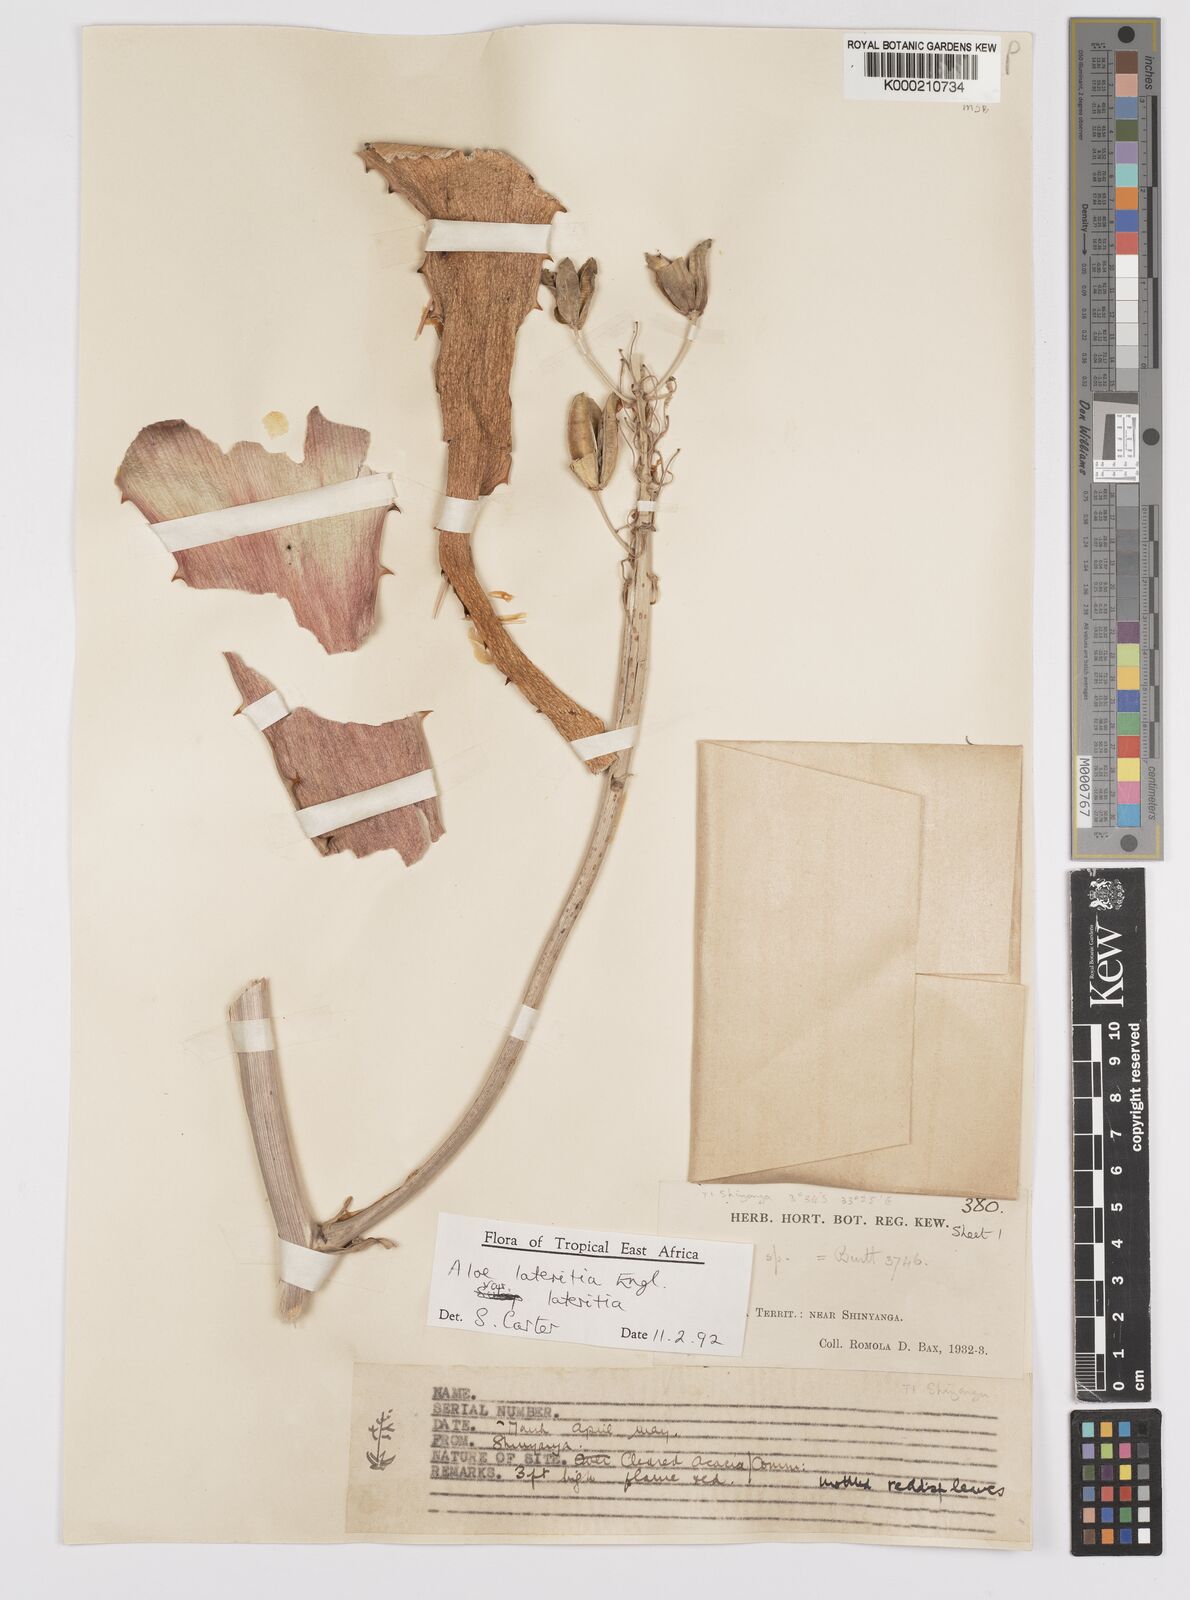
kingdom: Plantae
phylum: Tracheophyta
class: Liliopsida
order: Asparagales
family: Asphodelaceae
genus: Aloe
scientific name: Aloe lateritia
